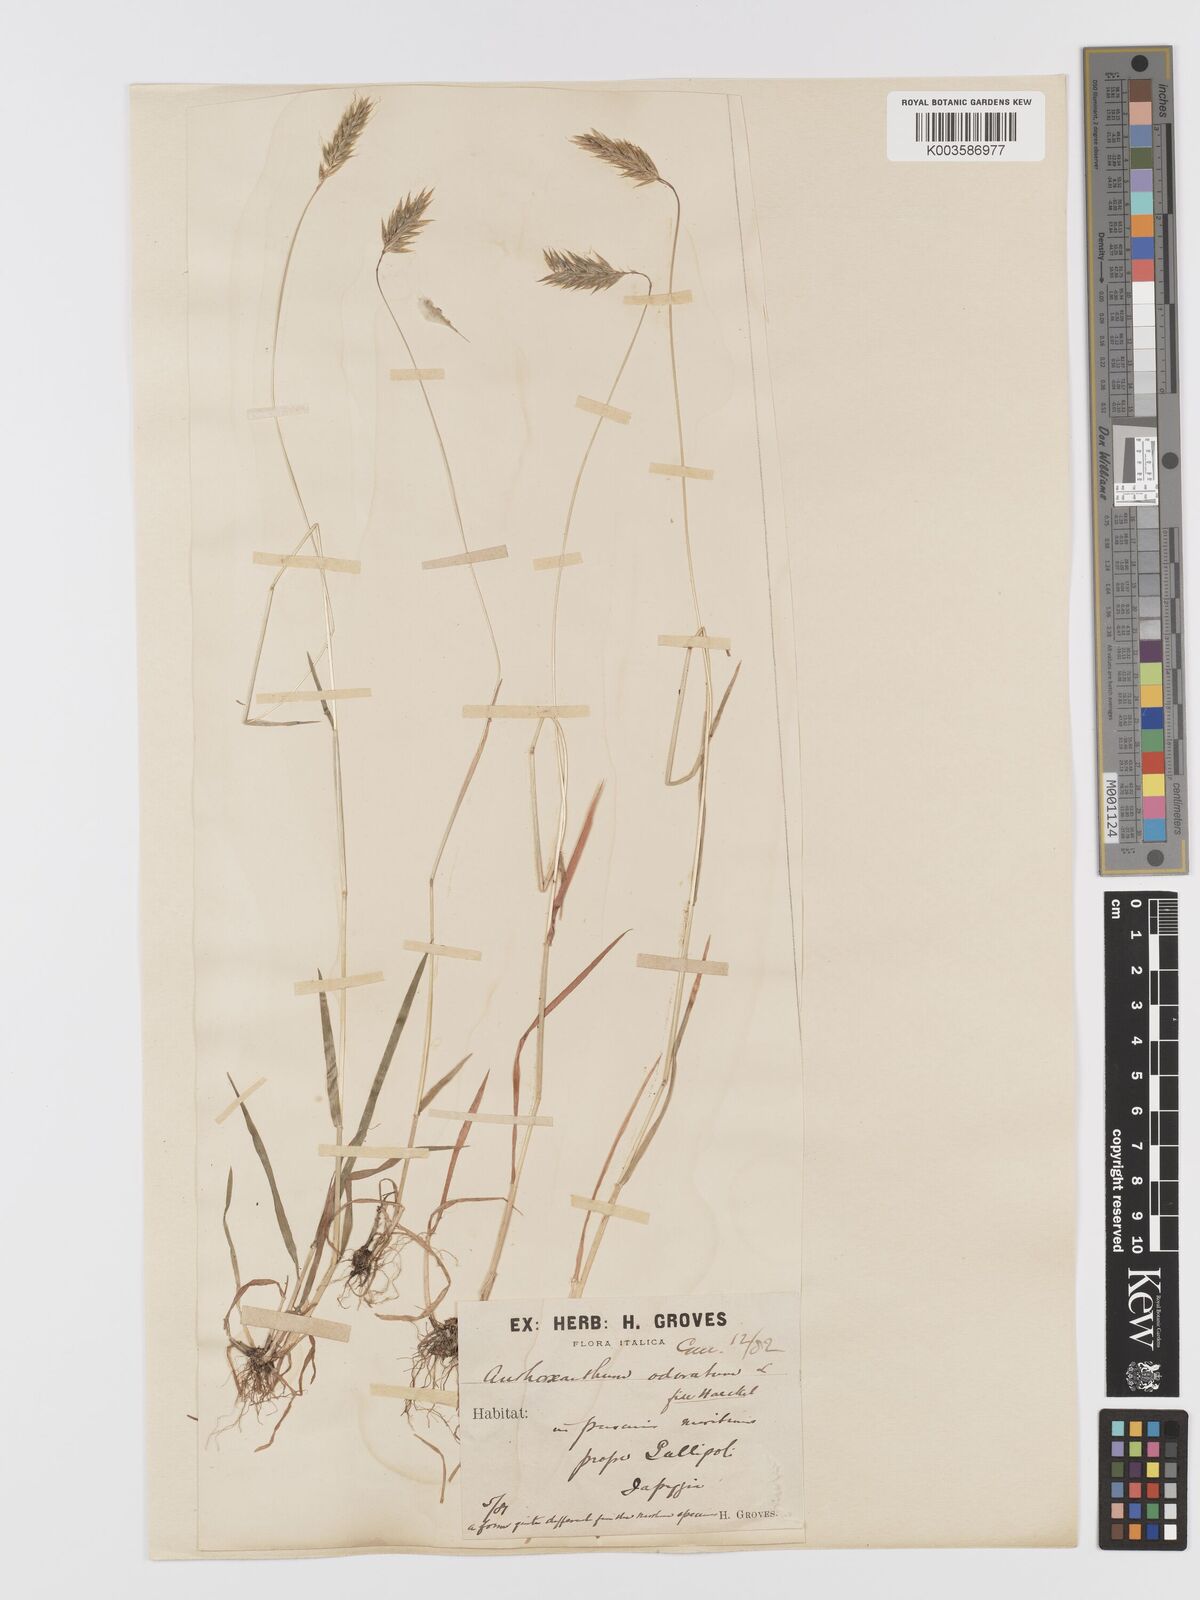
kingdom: Plantae
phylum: Tracheophyta
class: Liliopsida
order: Poales
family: Poaceae
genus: Anthoxanthum
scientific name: Anthoxanthum odoratum
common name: Sweet vernalgrass
